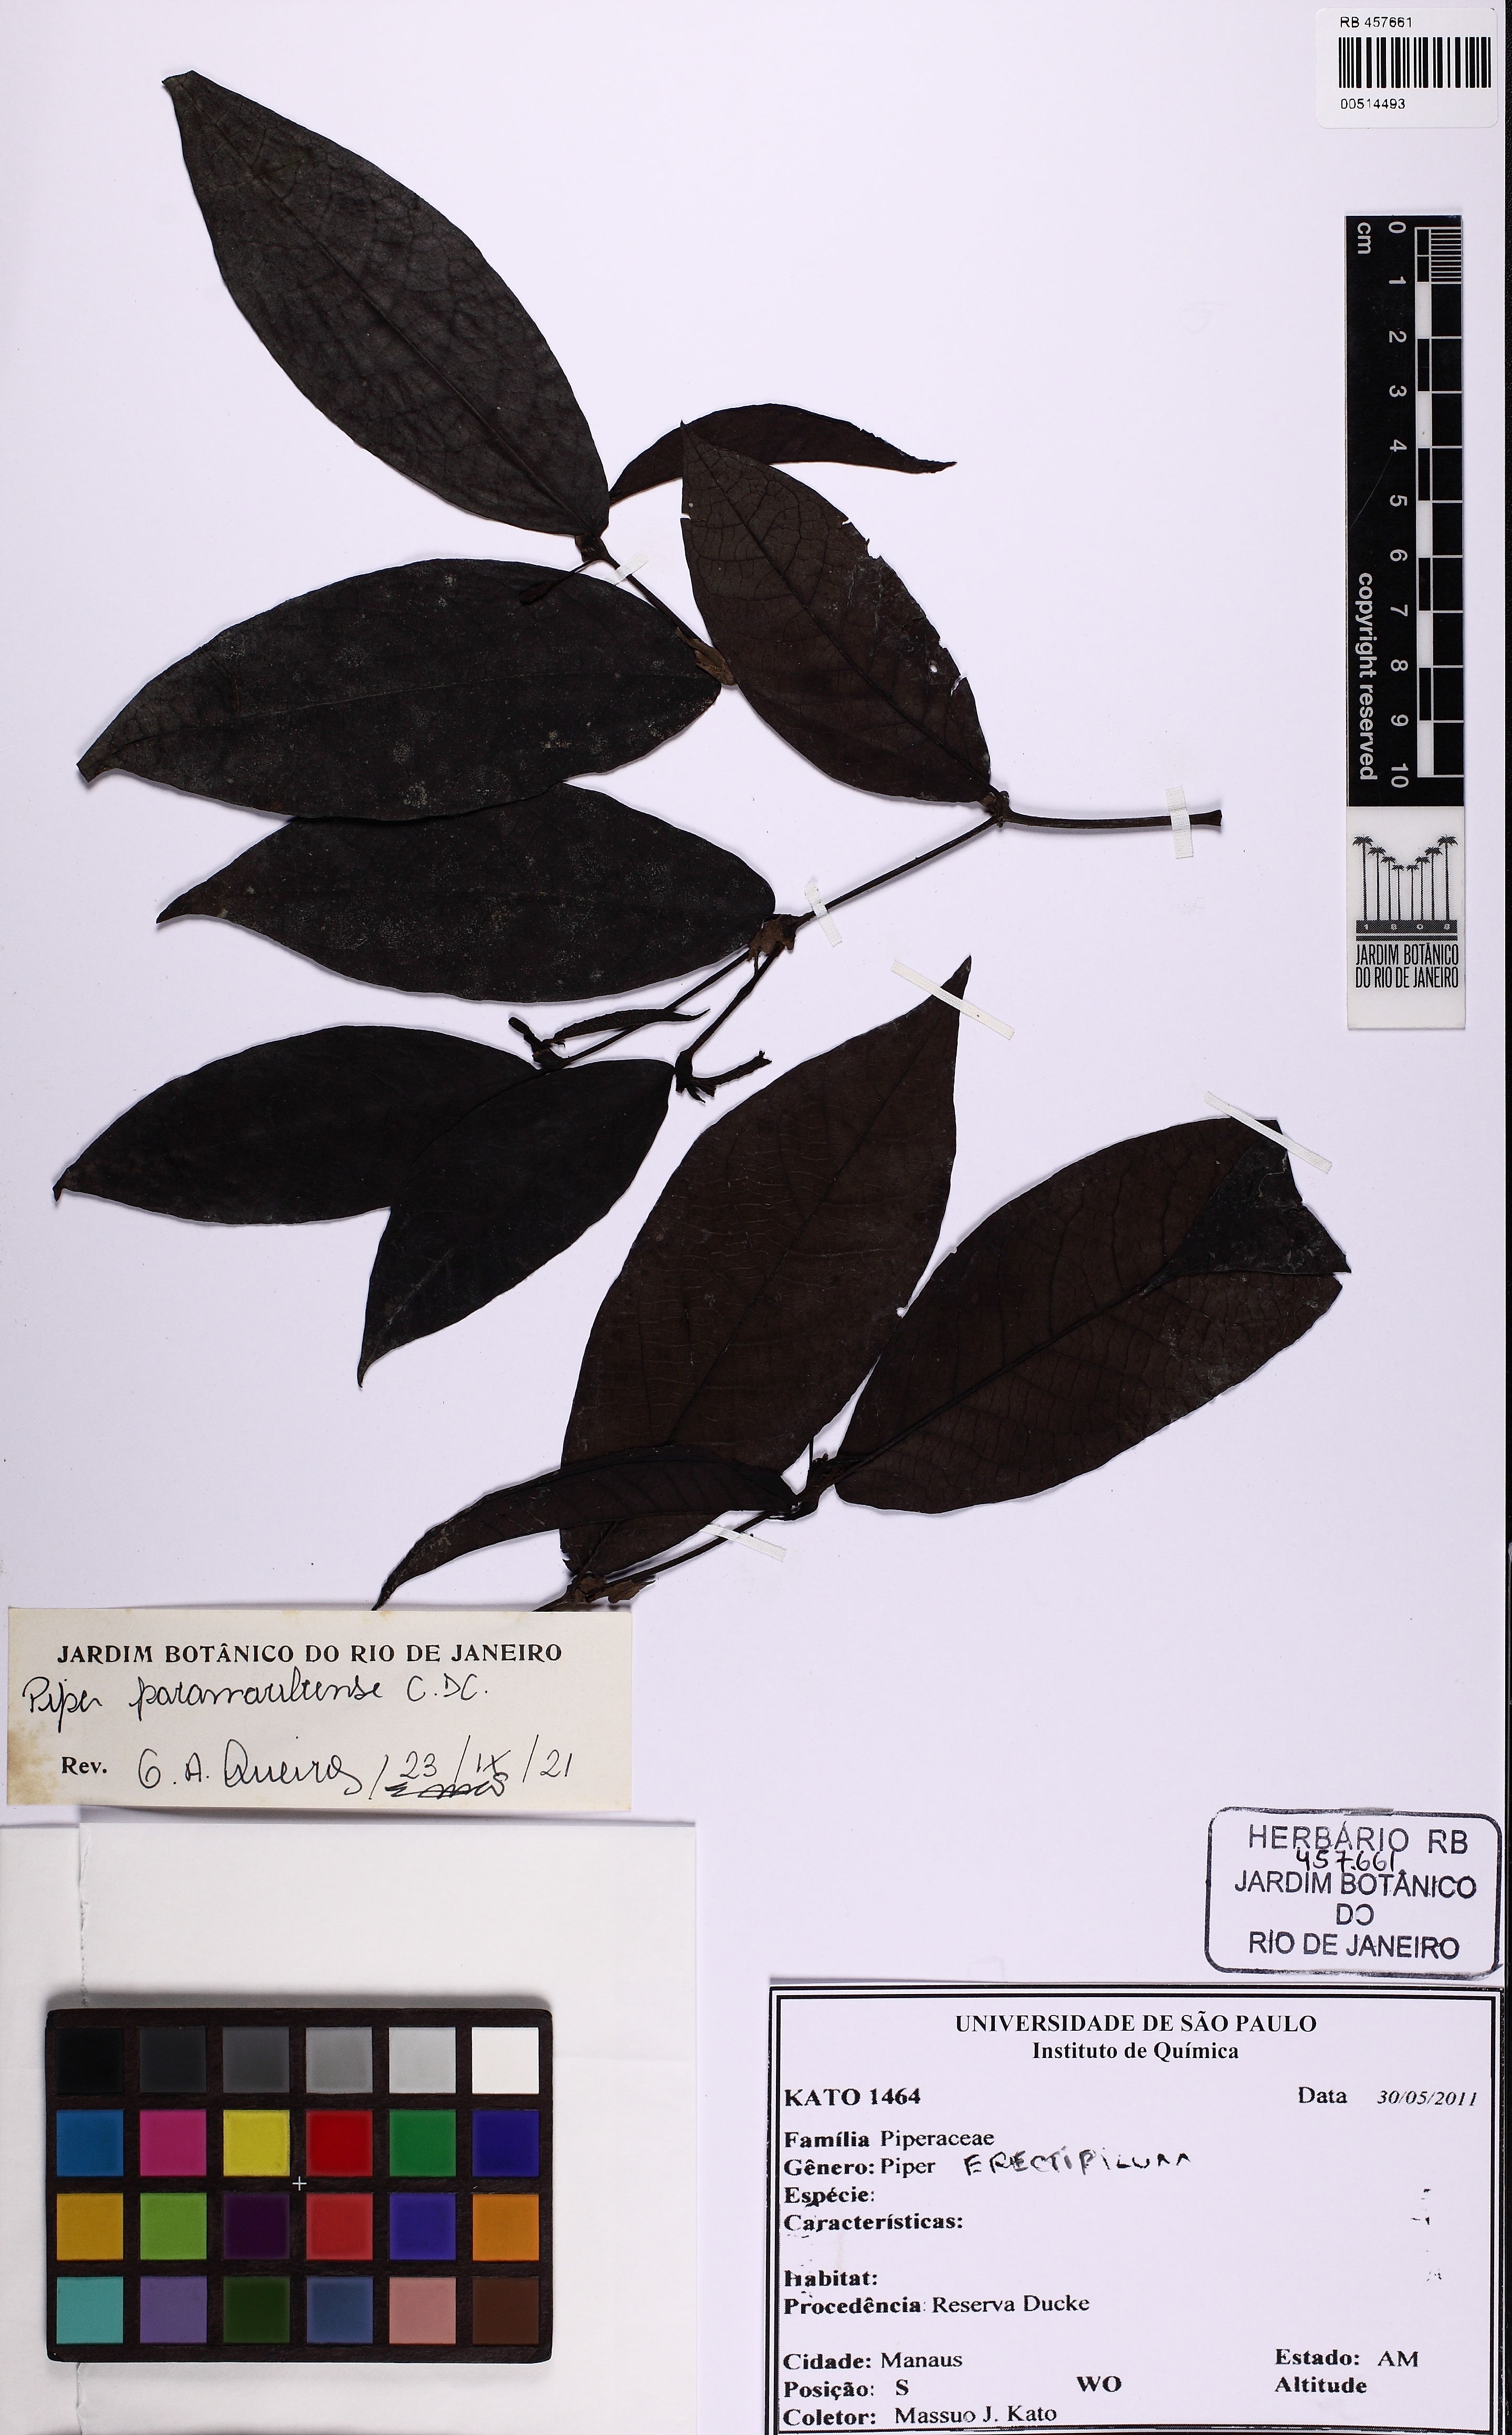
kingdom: Plantae
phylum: Tracheophyta
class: Magnoliopsida
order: Piperales
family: Piperaceae
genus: Piper
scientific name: Piper paramaribense
